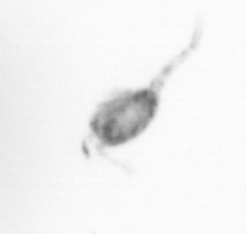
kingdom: Animalia
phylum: Arthropoda
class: Copepoda
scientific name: Copepoda
